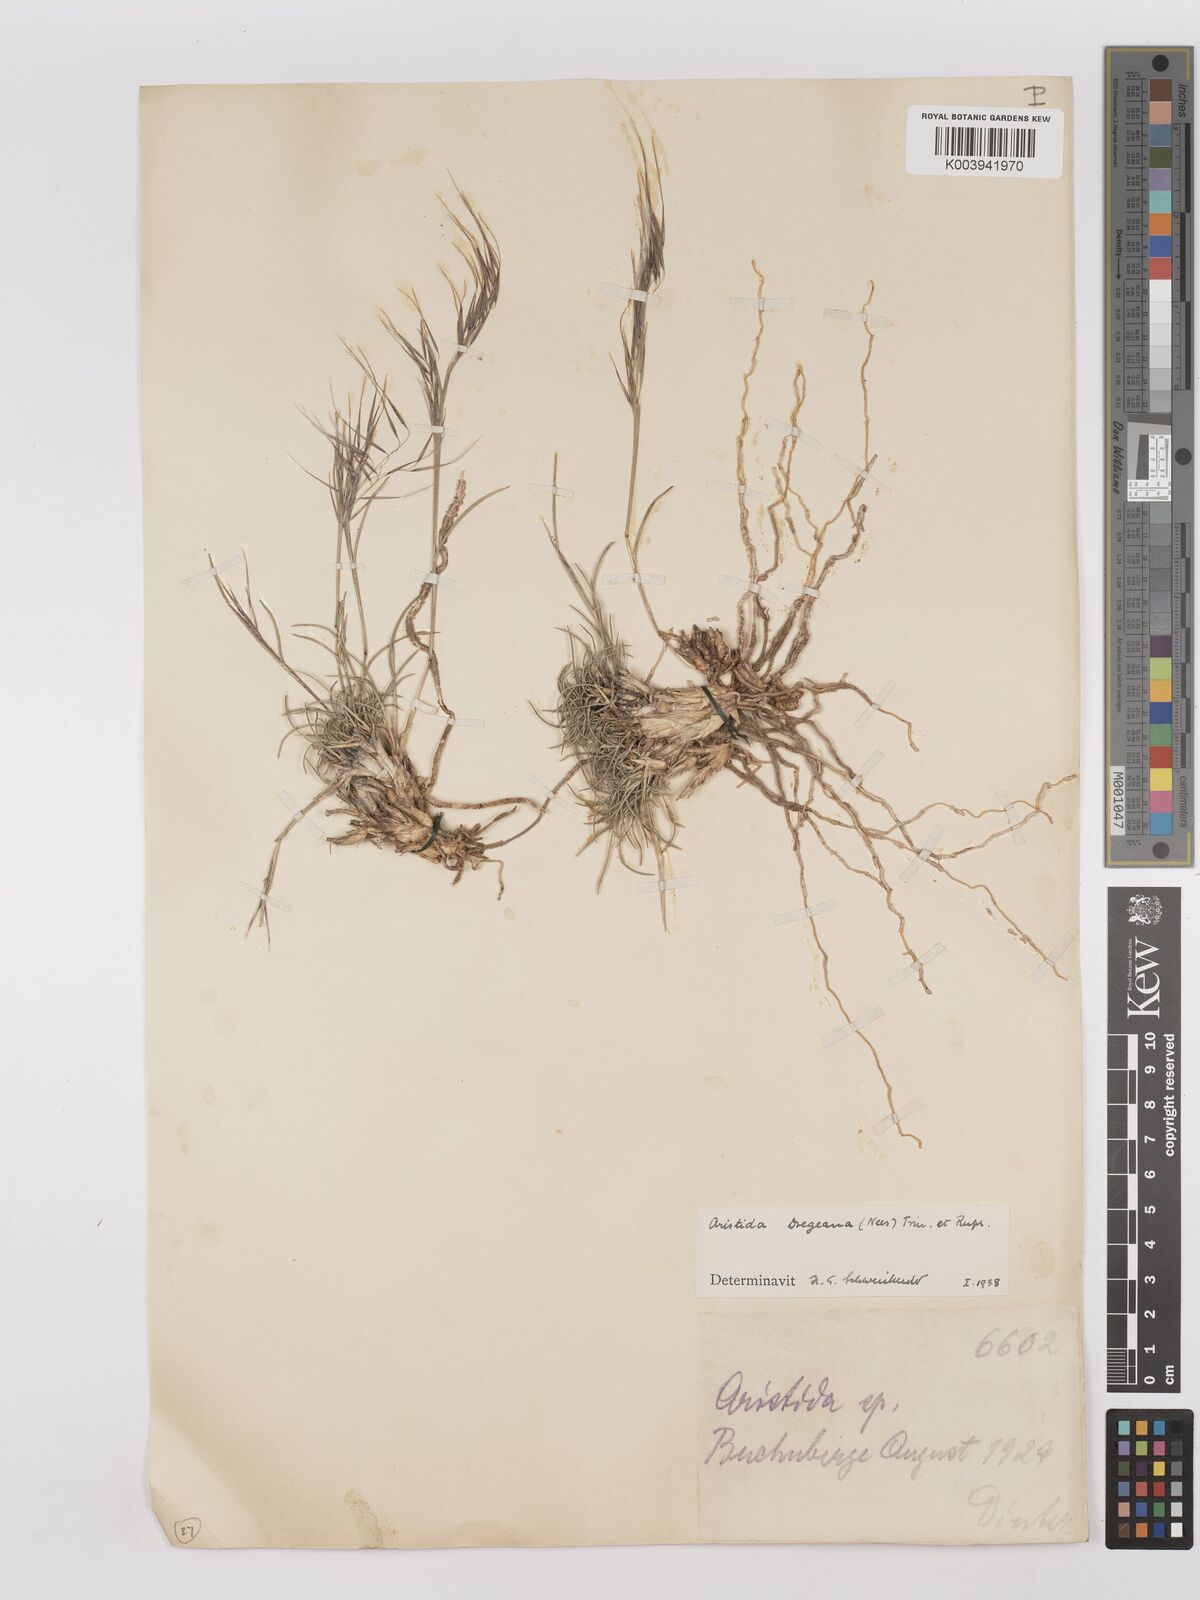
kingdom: Plantae
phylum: Tracheophyta
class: Liliopsida
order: Poales
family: Poaceae
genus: Stipagrostis
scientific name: Stipagrostis dregeana
